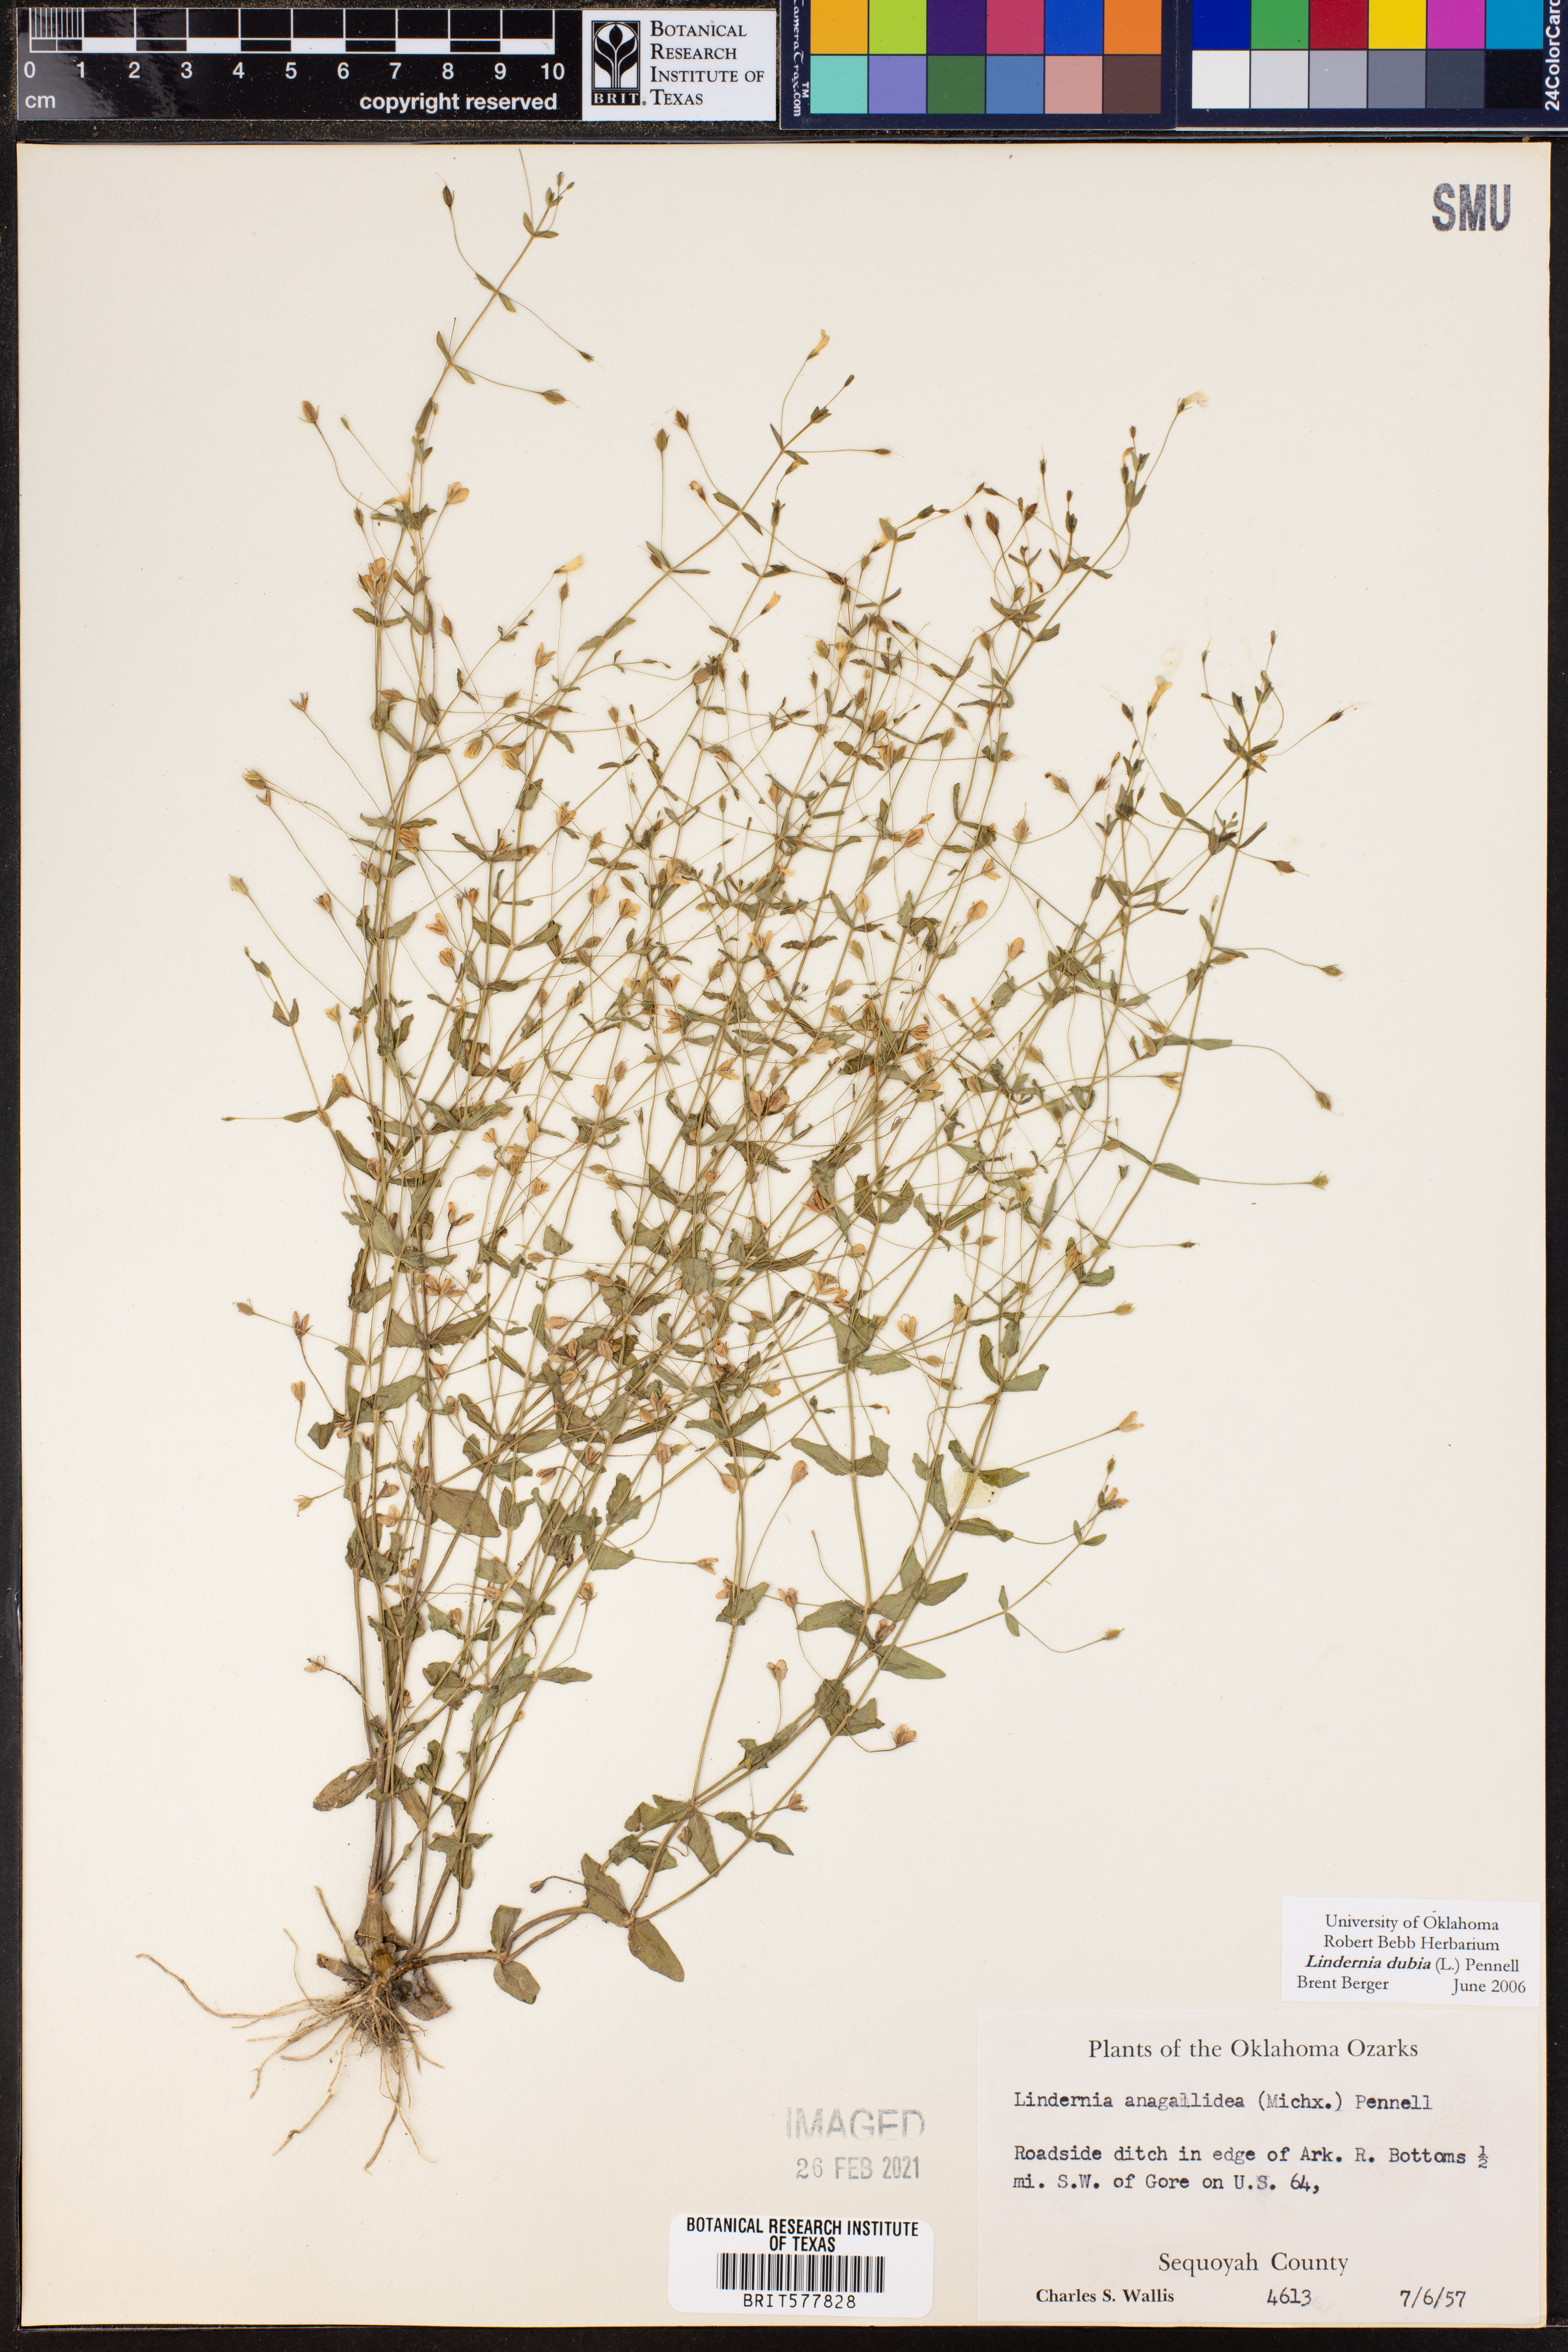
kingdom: Plantae
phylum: Tracheophyta
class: Magnoliopsida
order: Lamiales
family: Linderniaceae
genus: Lindernia
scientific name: Lindernia dubia
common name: Annual false pimpernel
